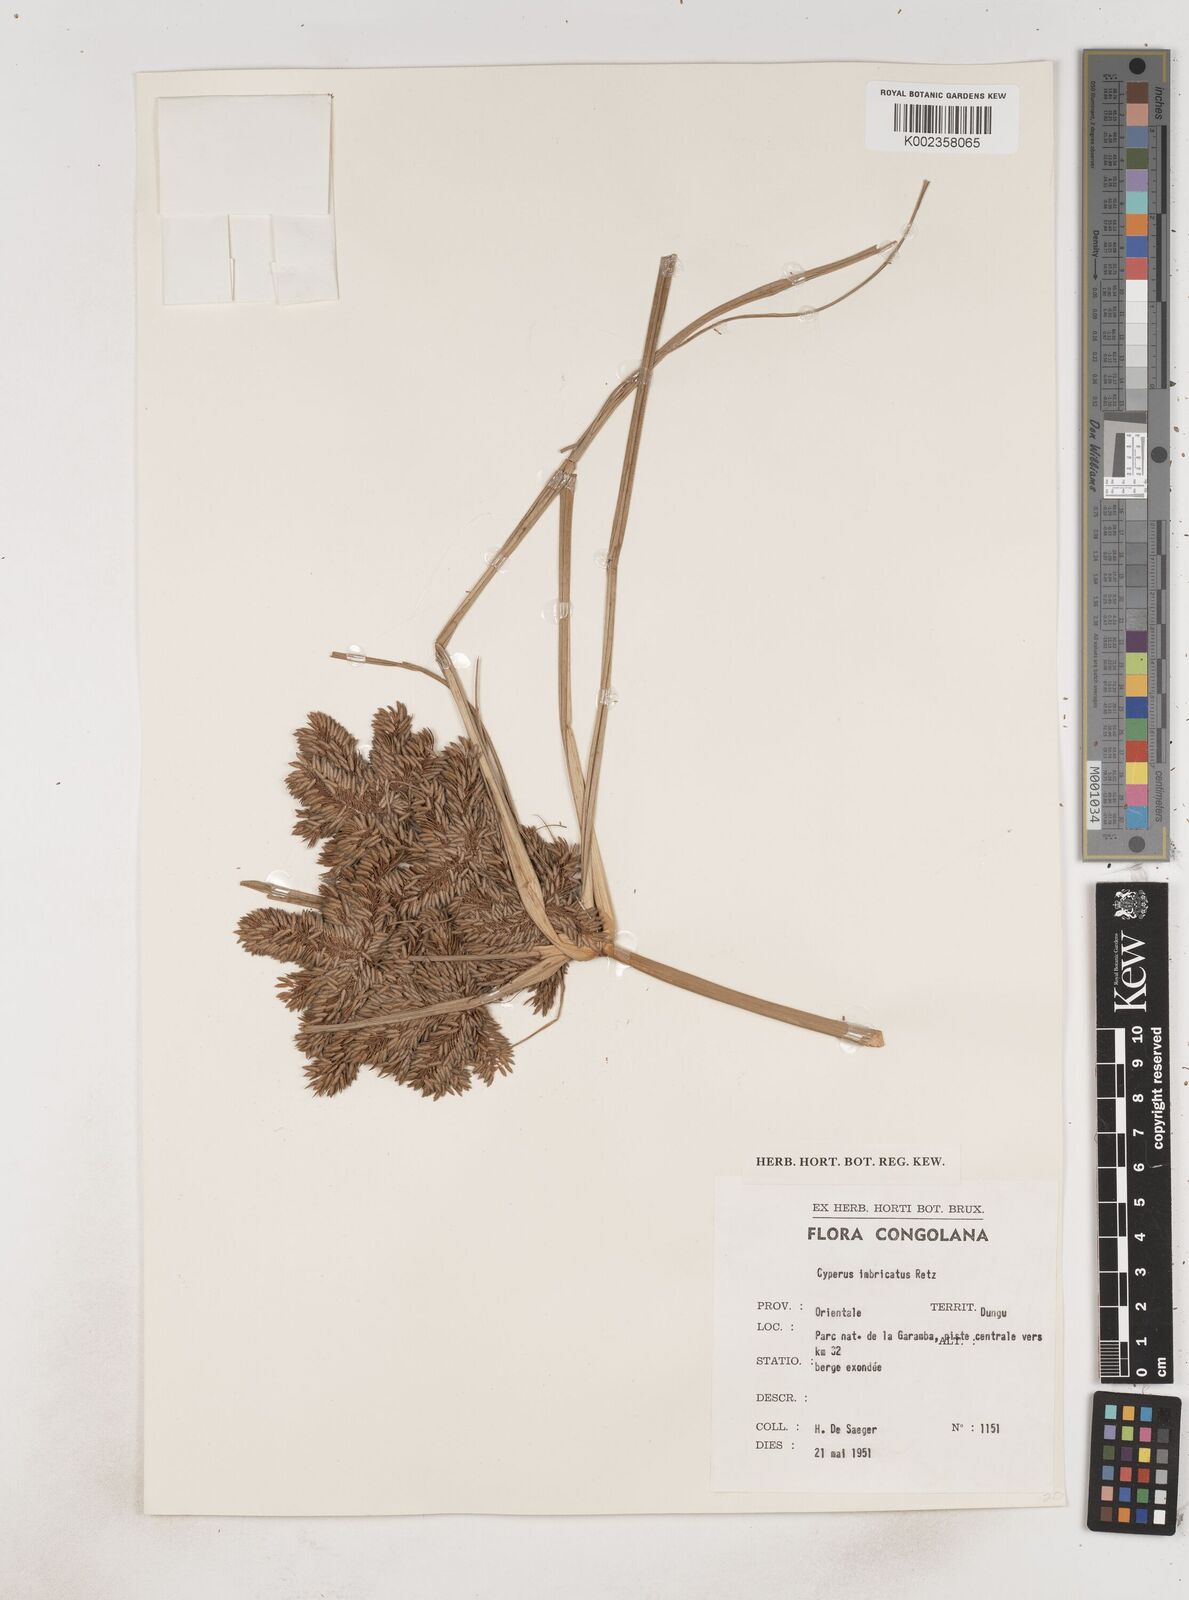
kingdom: Plantae
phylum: Tracheophyta
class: Liliopsida
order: Poales
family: Cyperaceae
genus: Cyperus
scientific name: Cyperus imbricatus
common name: Shingle flatsedge
